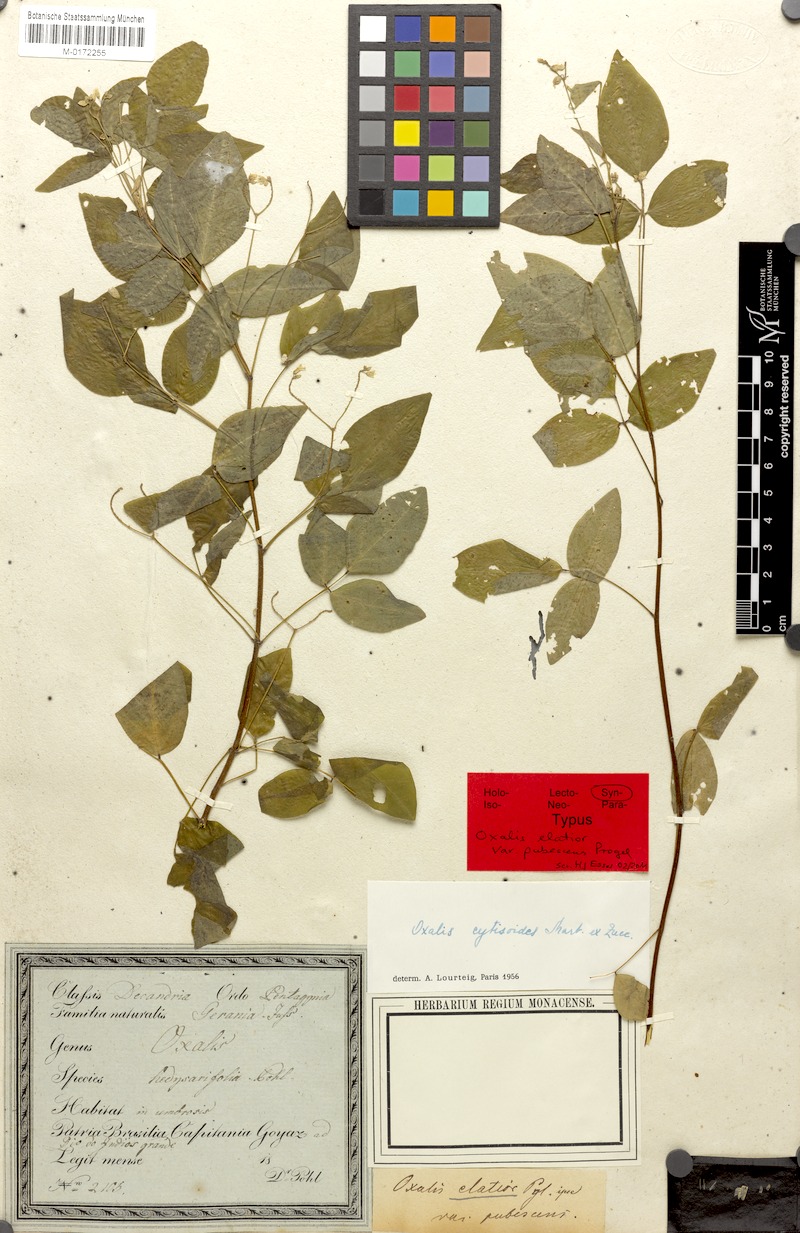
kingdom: Plantae
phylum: Tracheophyta
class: Magnoliopsida
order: Oxalidales
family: Oxalidaceae
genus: Oxalis
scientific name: Oxalis cytisoides
